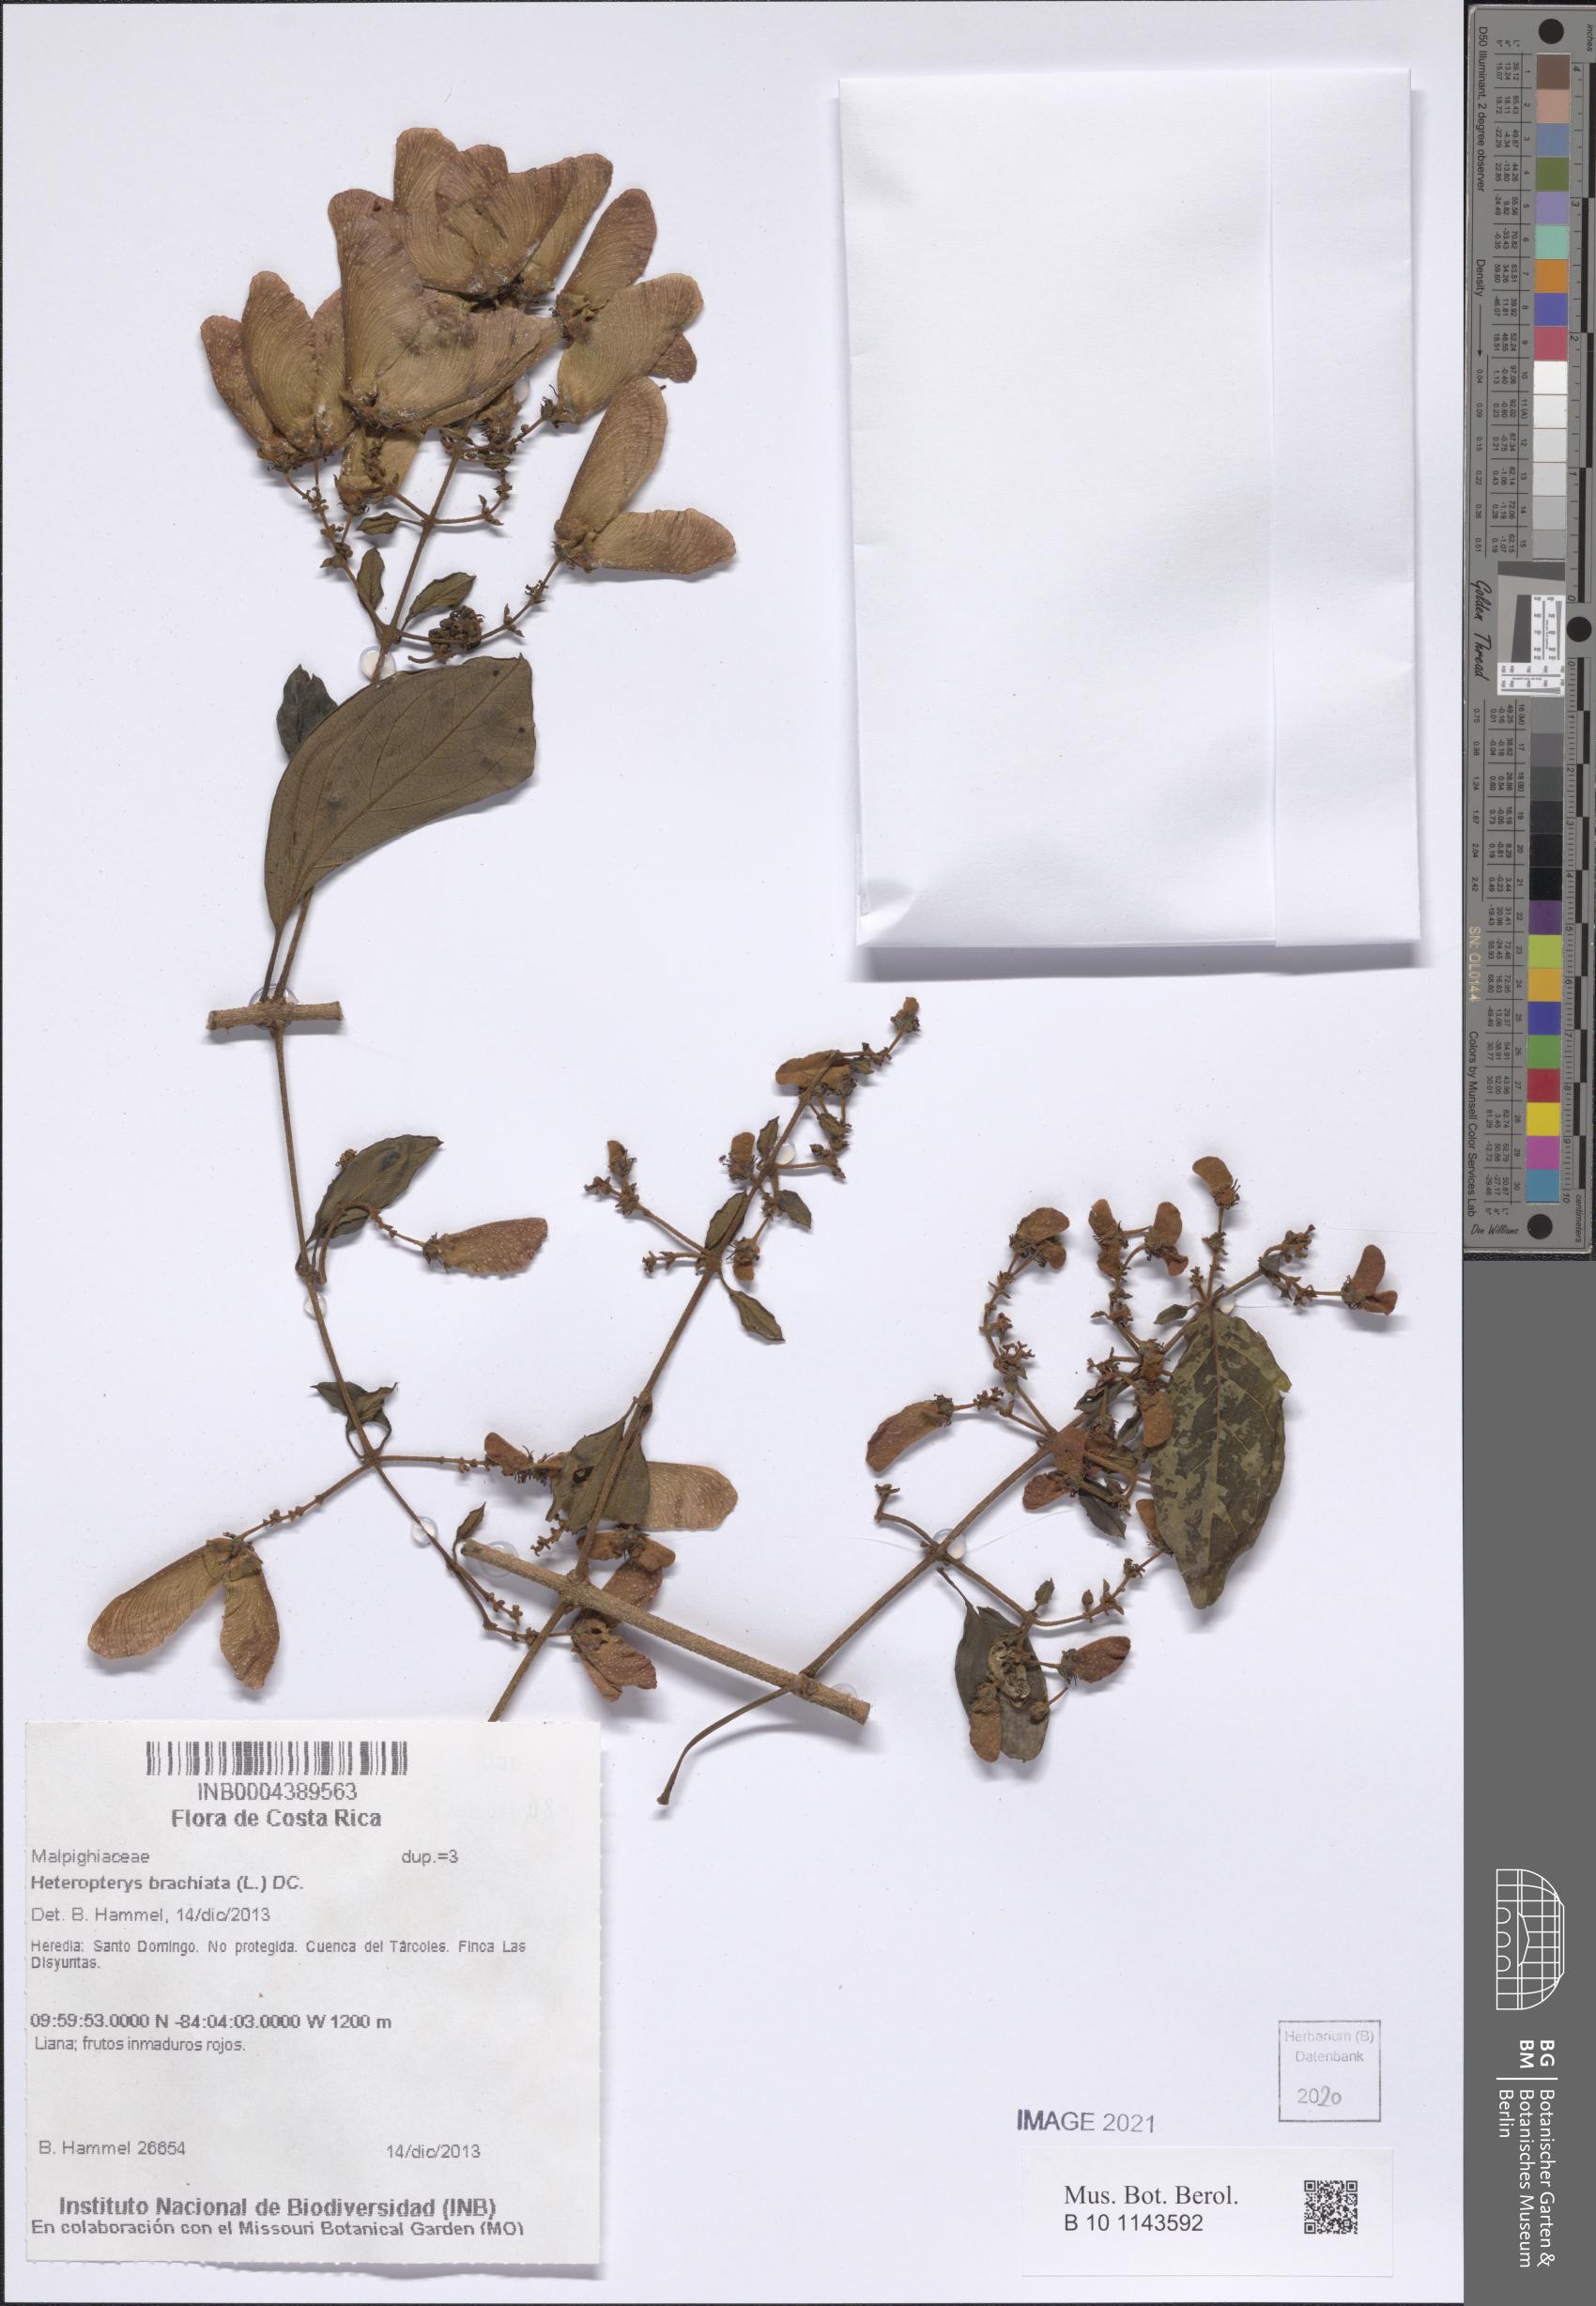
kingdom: Plantae
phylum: Tracheophyta
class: Magnoliopsida
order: Malpighiales
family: Malpighiaceae
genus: Heteropterys
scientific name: Heteropterys brachiata
